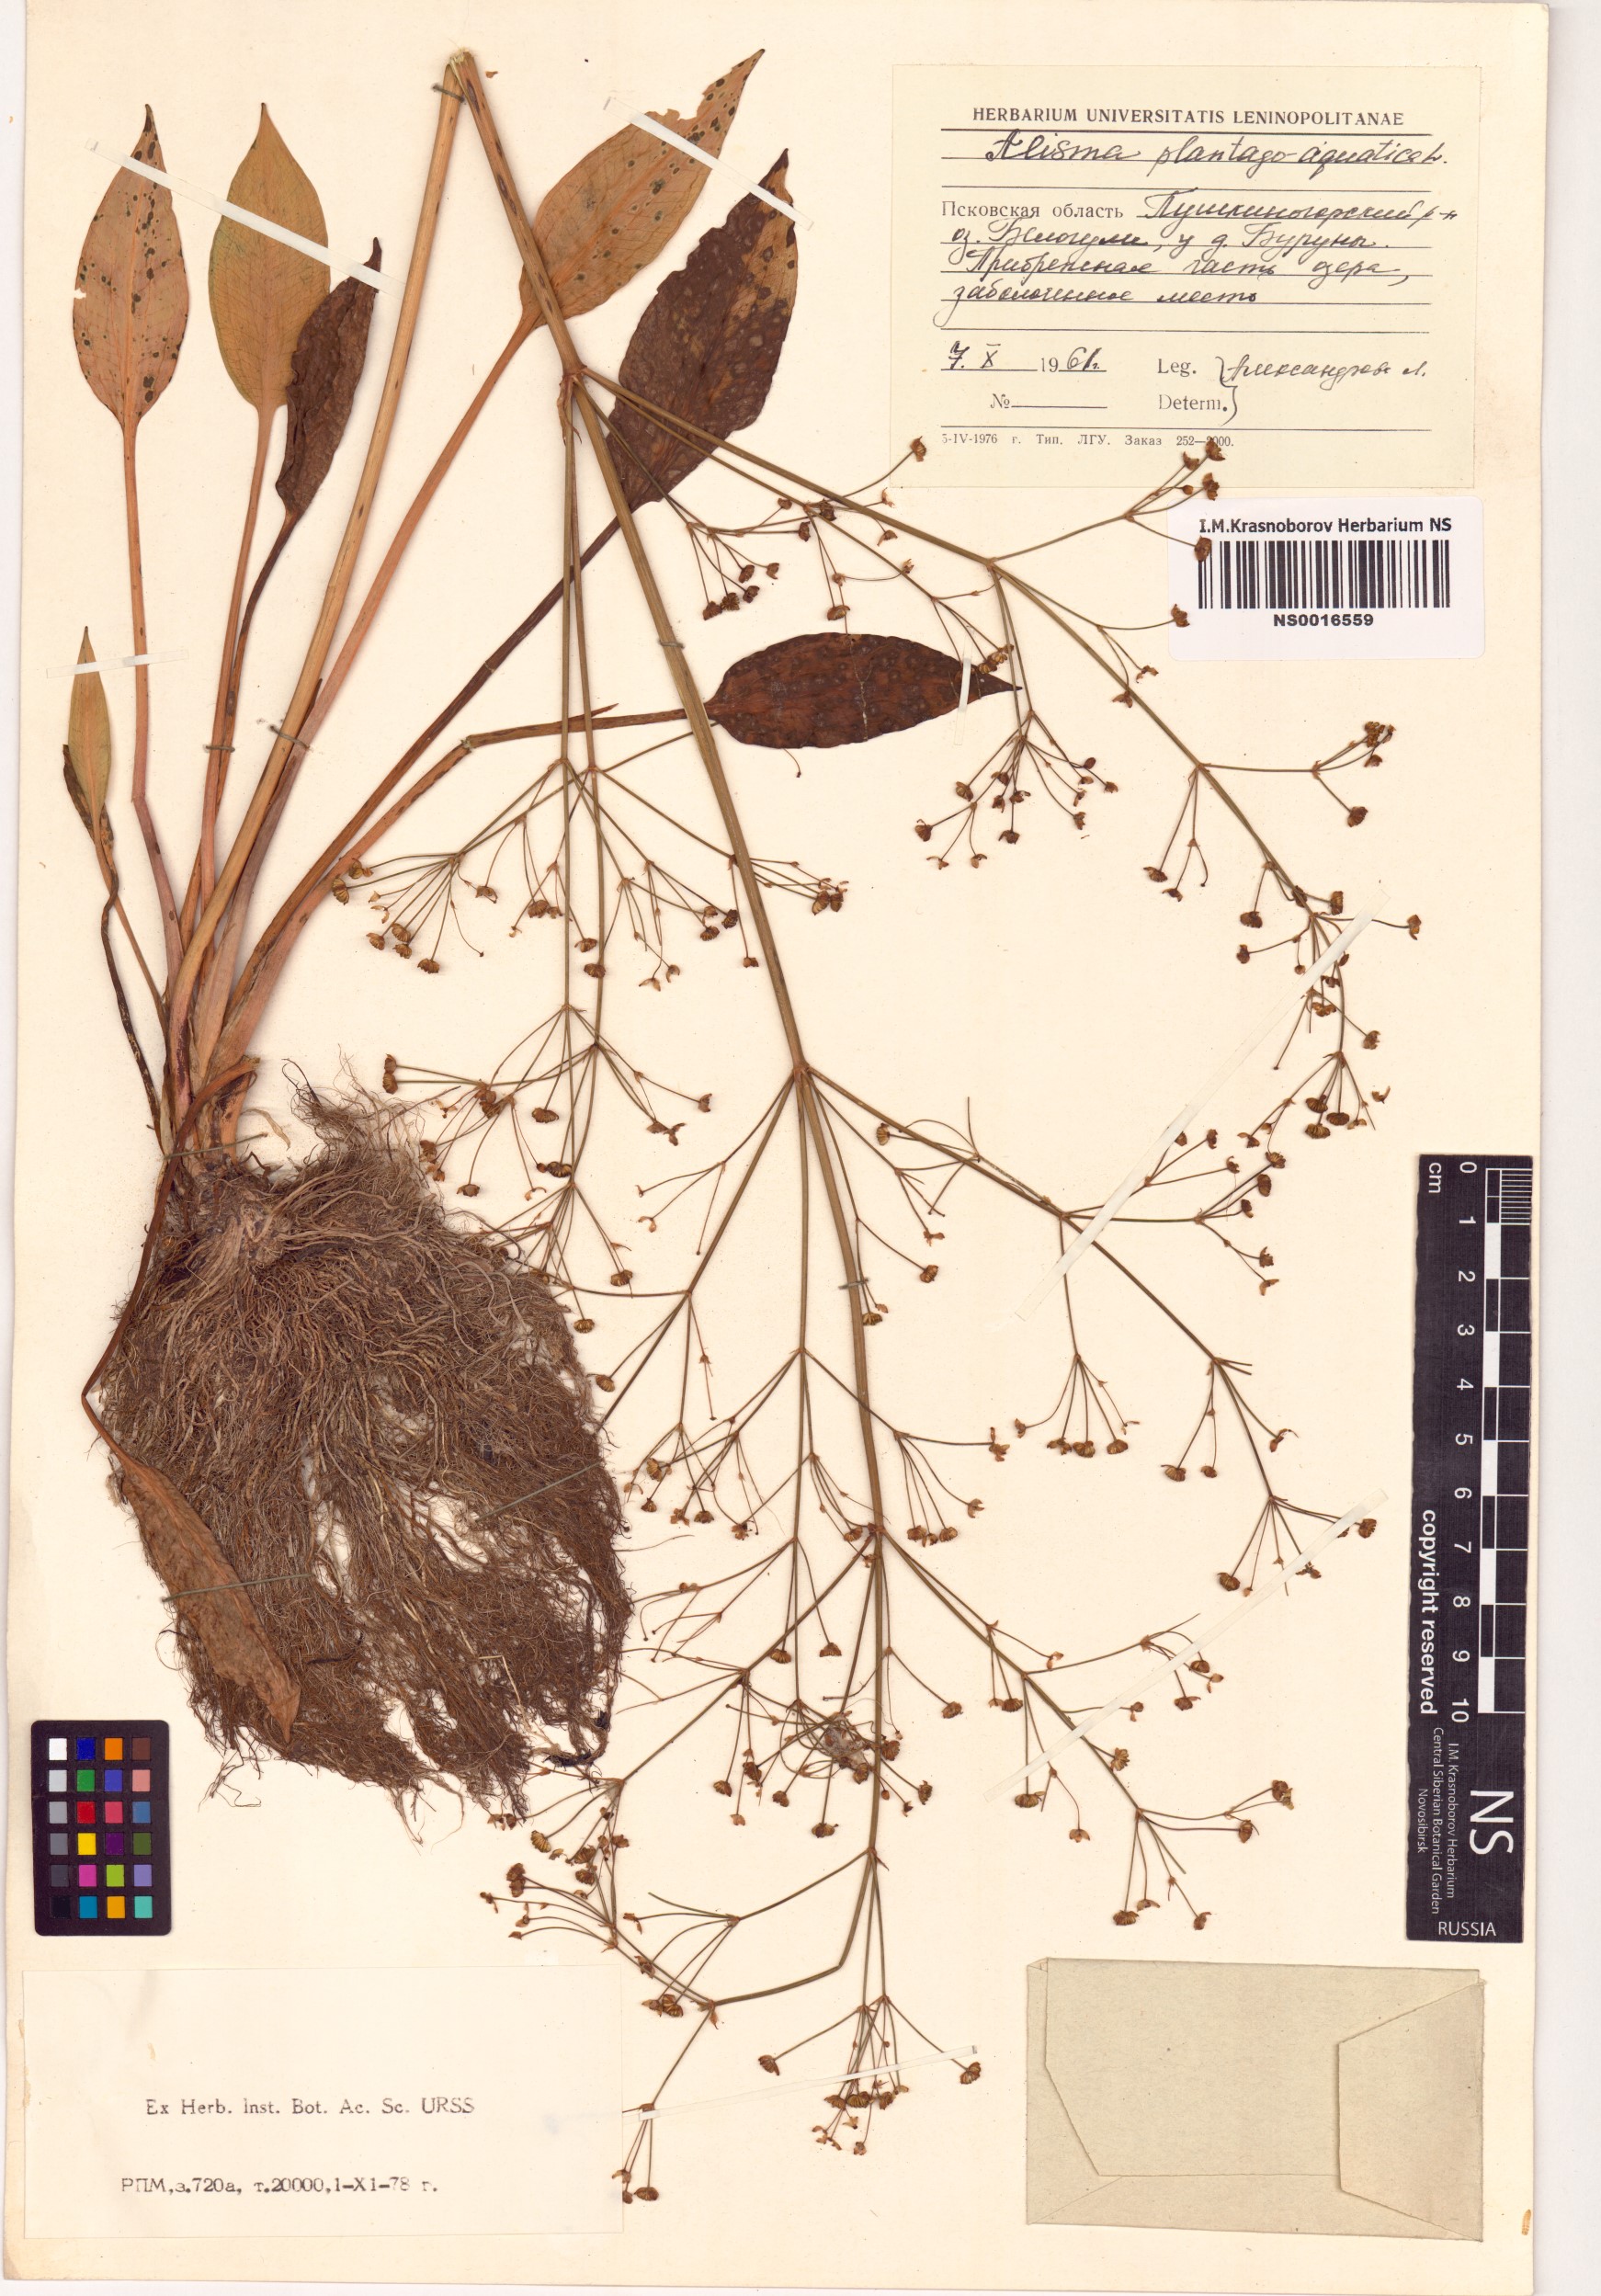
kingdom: Plantae
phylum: Tracheophyta
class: Liliopsida
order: Alismatales
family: Alismataceae
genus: Alisma
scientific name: Alisma plantago-aquatica
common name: Water-plantain
